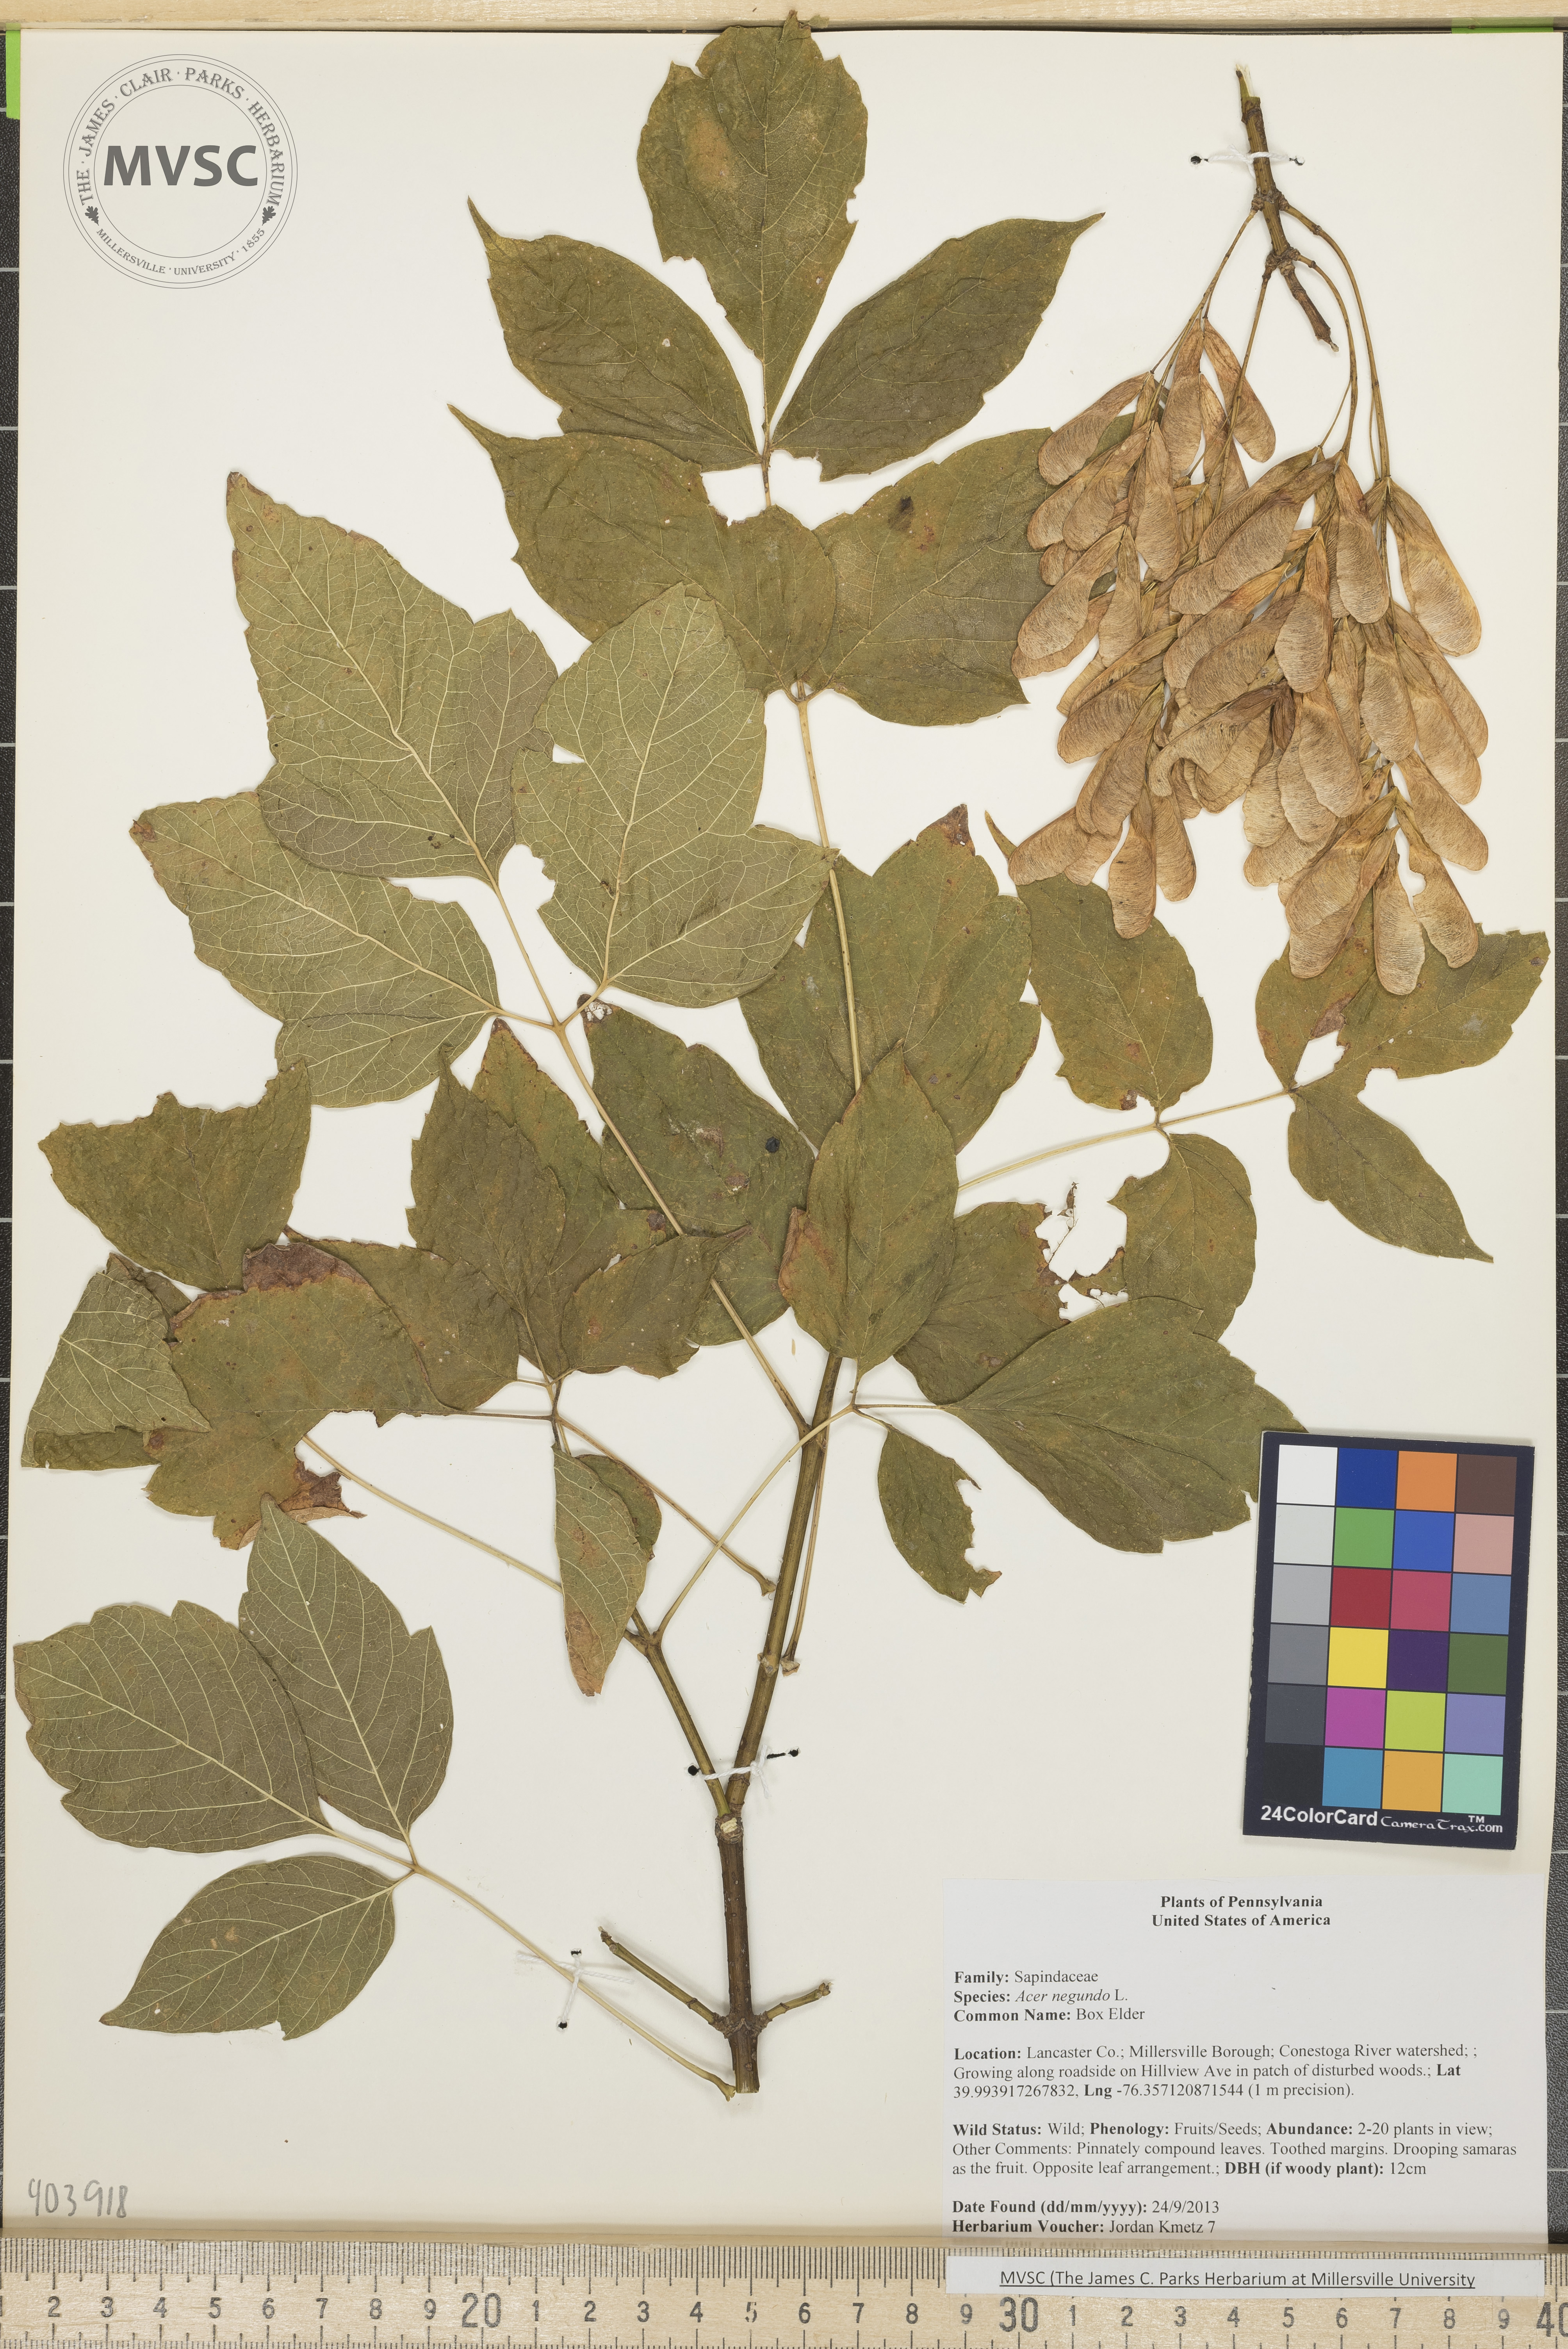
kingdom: Plantae
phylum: Tracheophyta
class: Magnoliopsida
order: Sapindales
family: Sapindaceae
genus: Acer
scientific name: Acer negundo
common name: Box Elder
